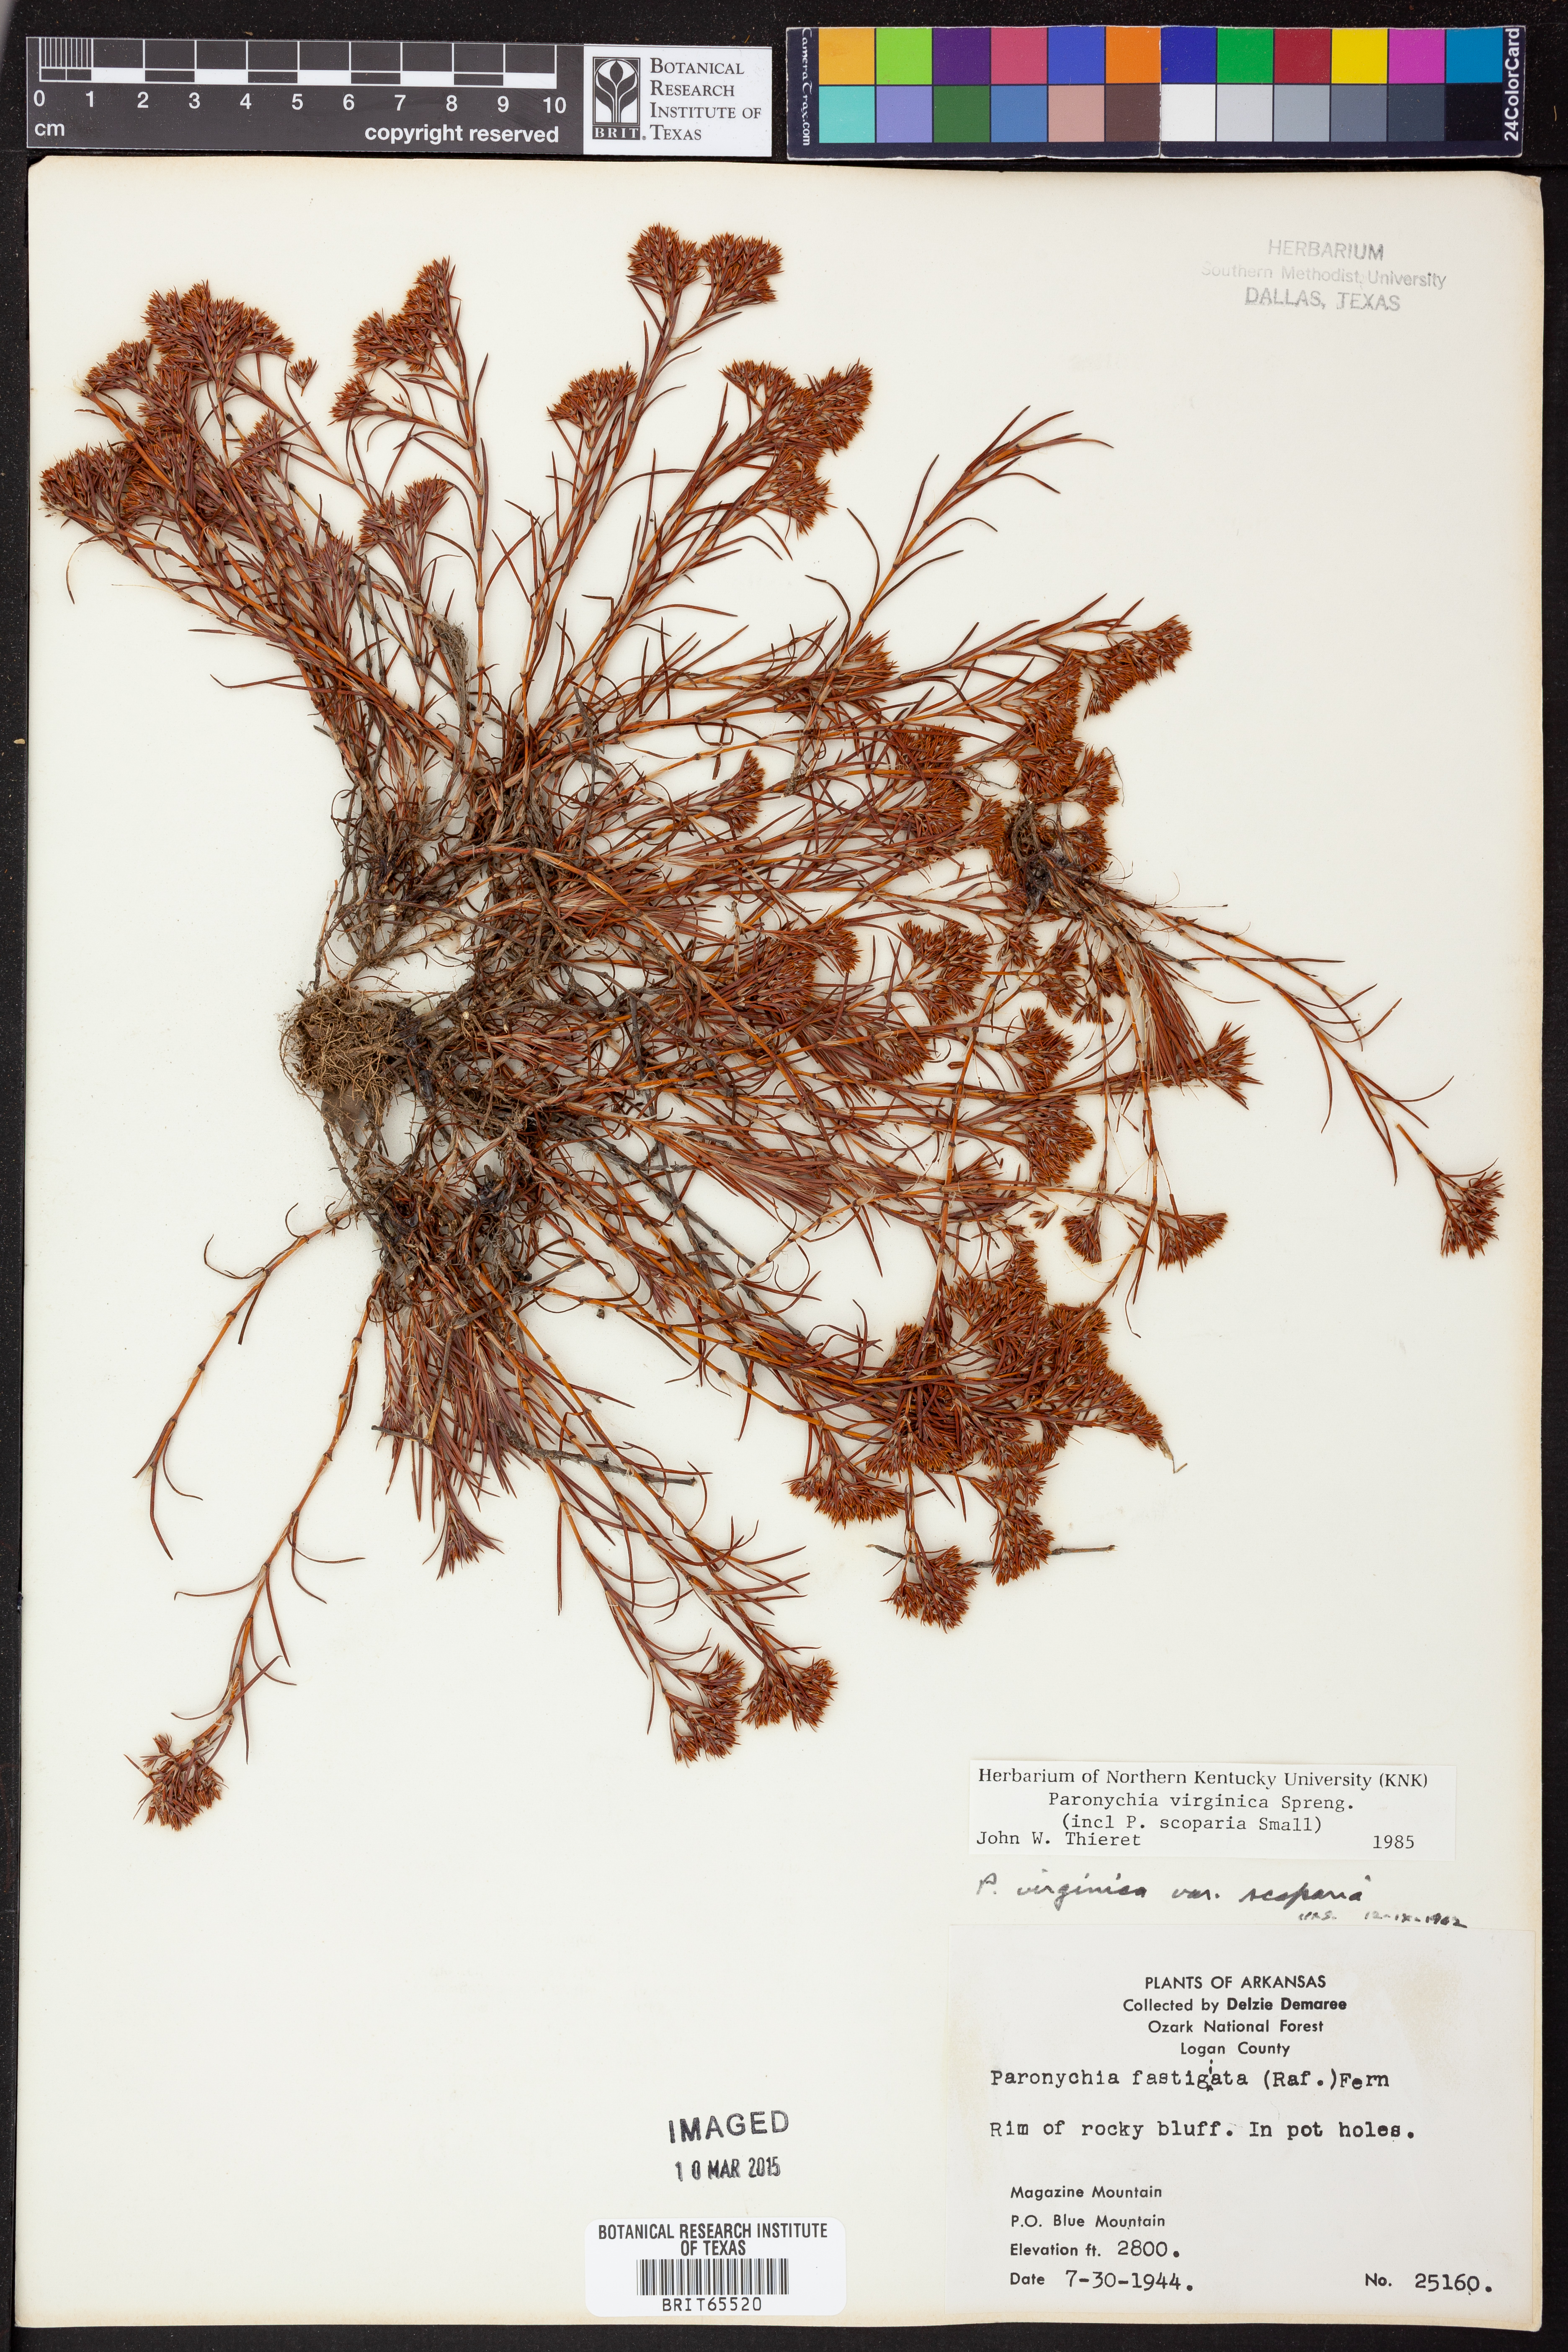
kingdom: Plantae
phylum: Tracheophyta
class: Magnoliopsida
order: Caryophyllales
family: Caryophyllaceae
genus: Paronychia
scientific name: Paronychia virginica
